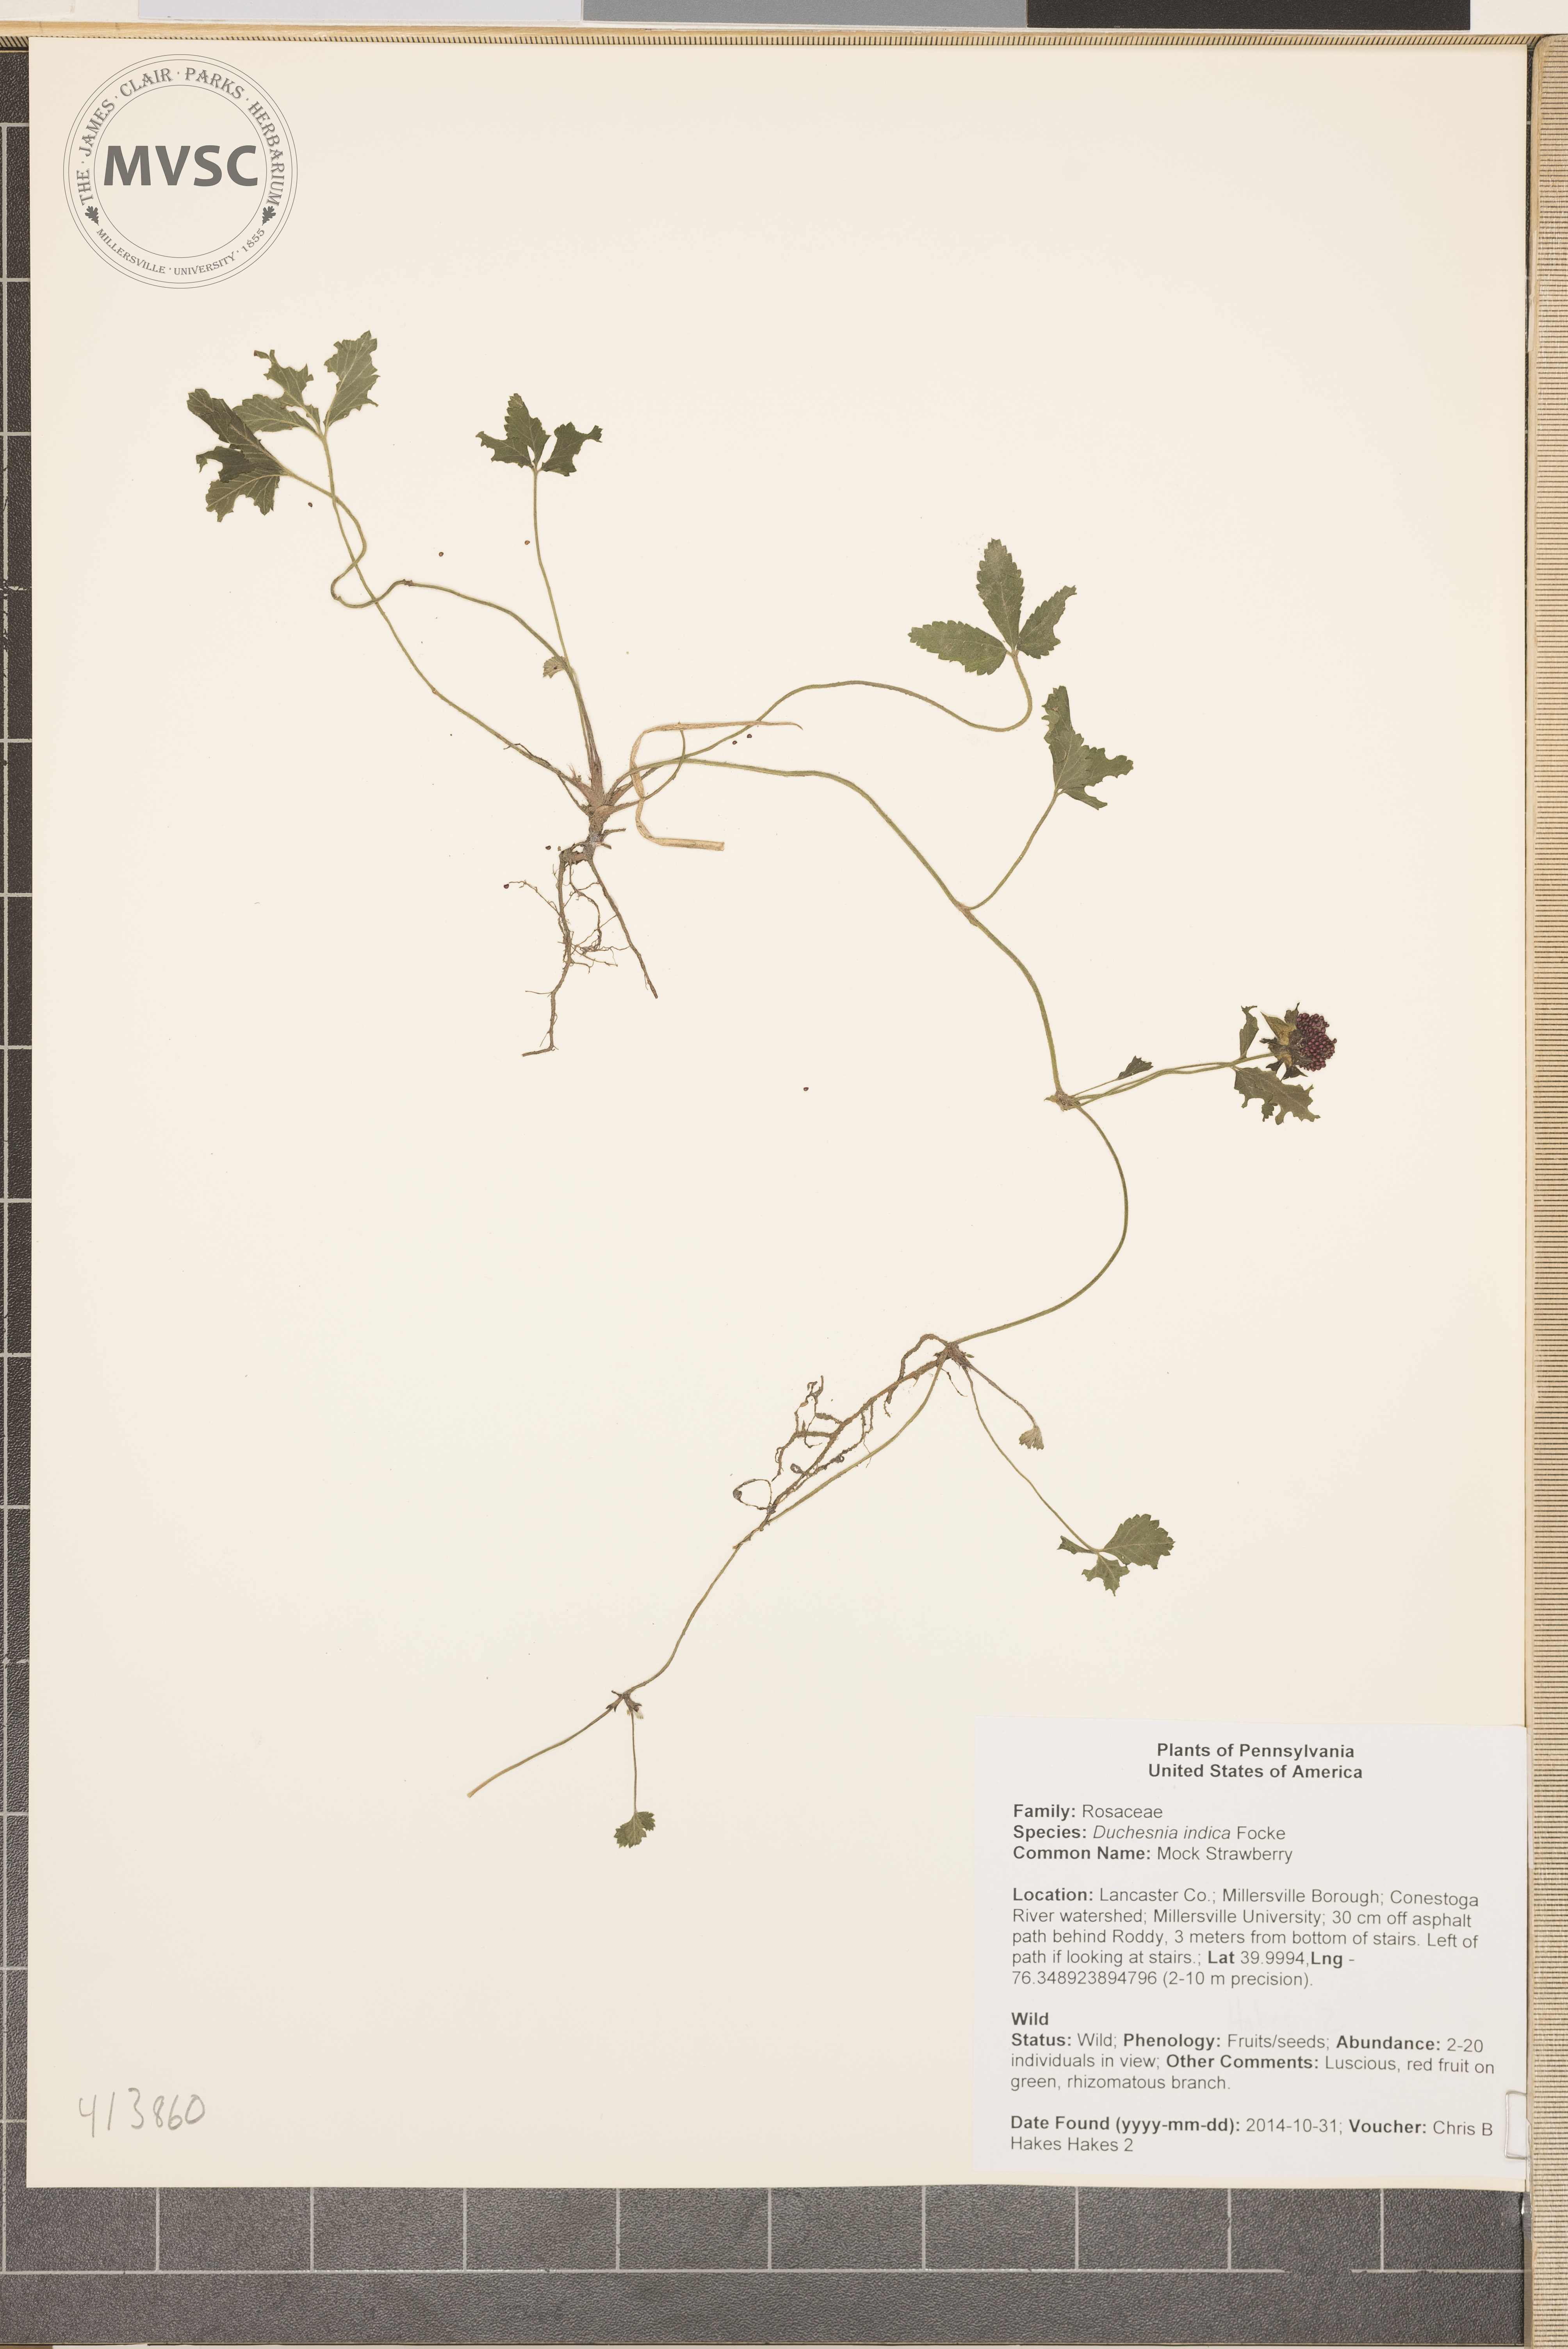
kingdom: Plantae
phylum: Tracheophyta
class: Magnoliopsida
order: Rosales
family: Rosaceae
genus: Potentilla
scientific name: Potentilla indica
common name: Mock Strawberry
